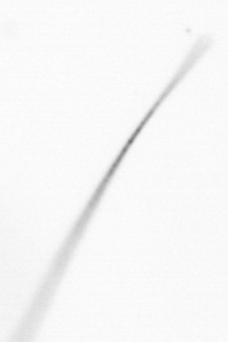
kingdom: Chromista
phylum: Ochrophyta
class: Bacillariophyceae
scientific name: Bacillariophyceae
